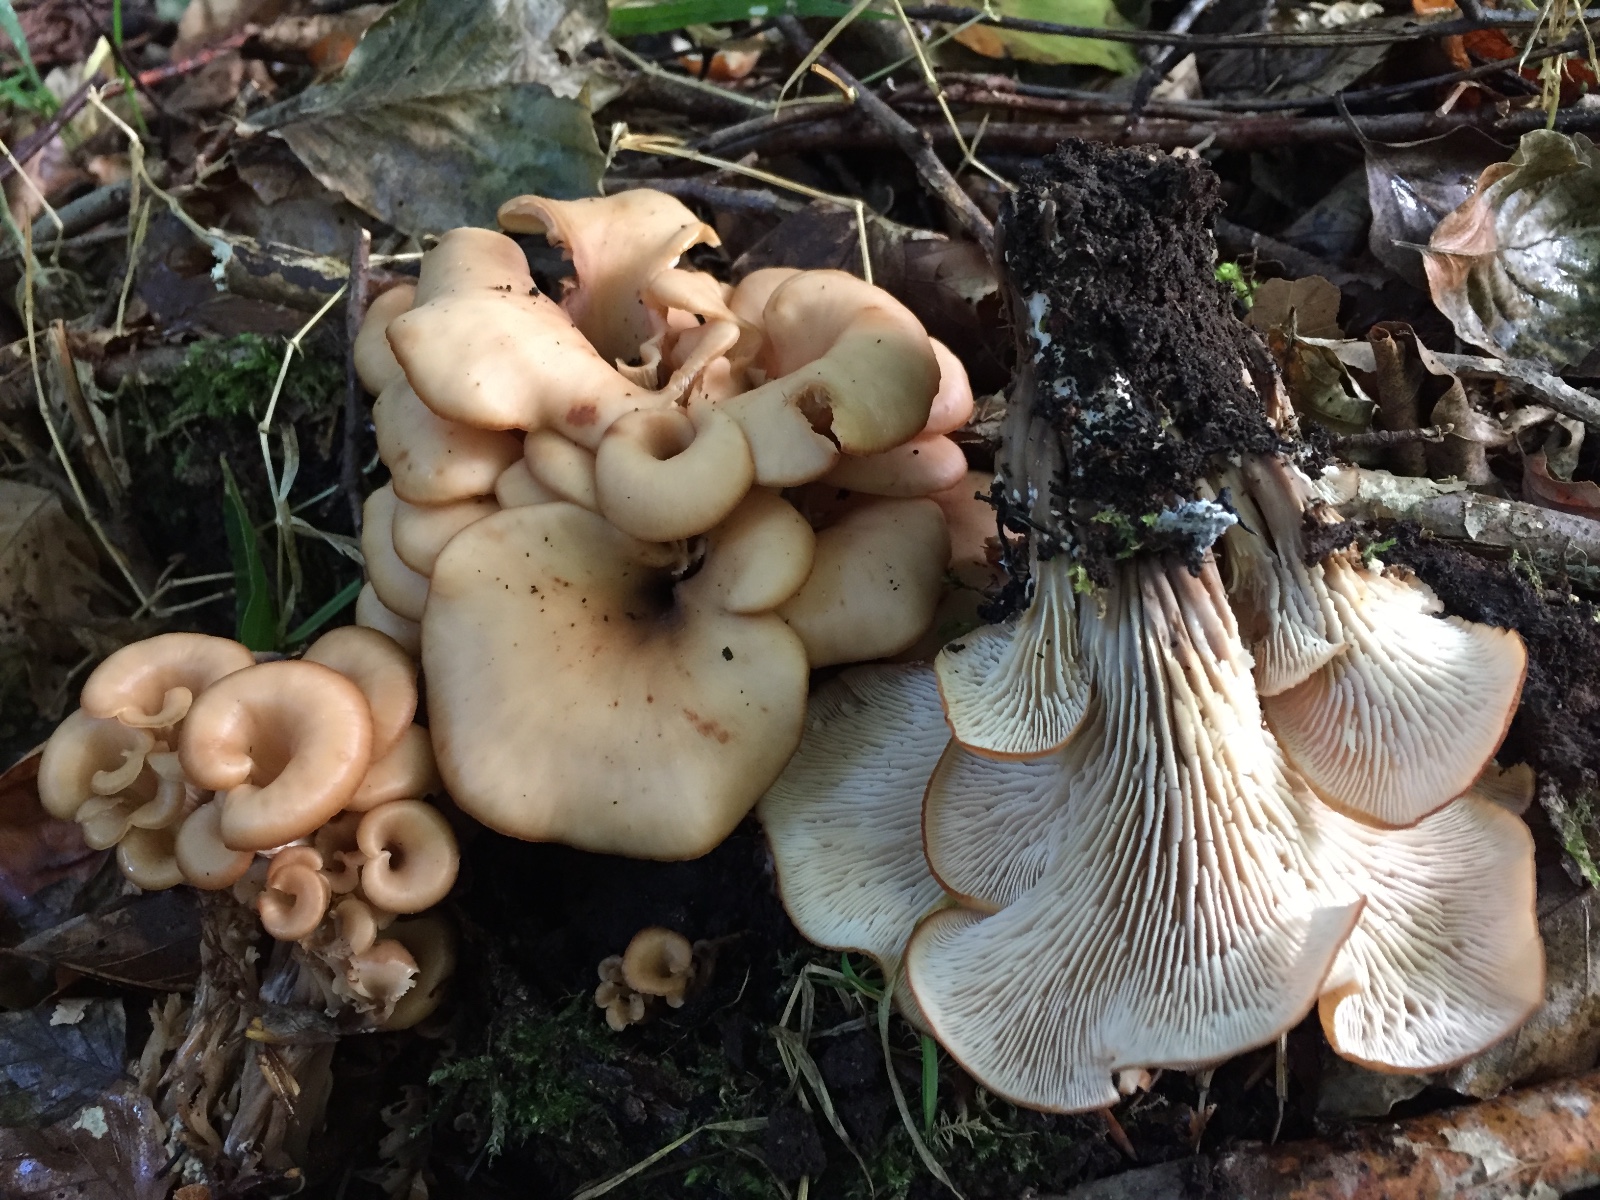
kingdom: Fungi
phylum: Basidiomycota
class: Agaricomycetes
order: Russulales
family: Auriscalpiaceae
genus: Lentinellus
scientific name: Lentinellus cochleatus
